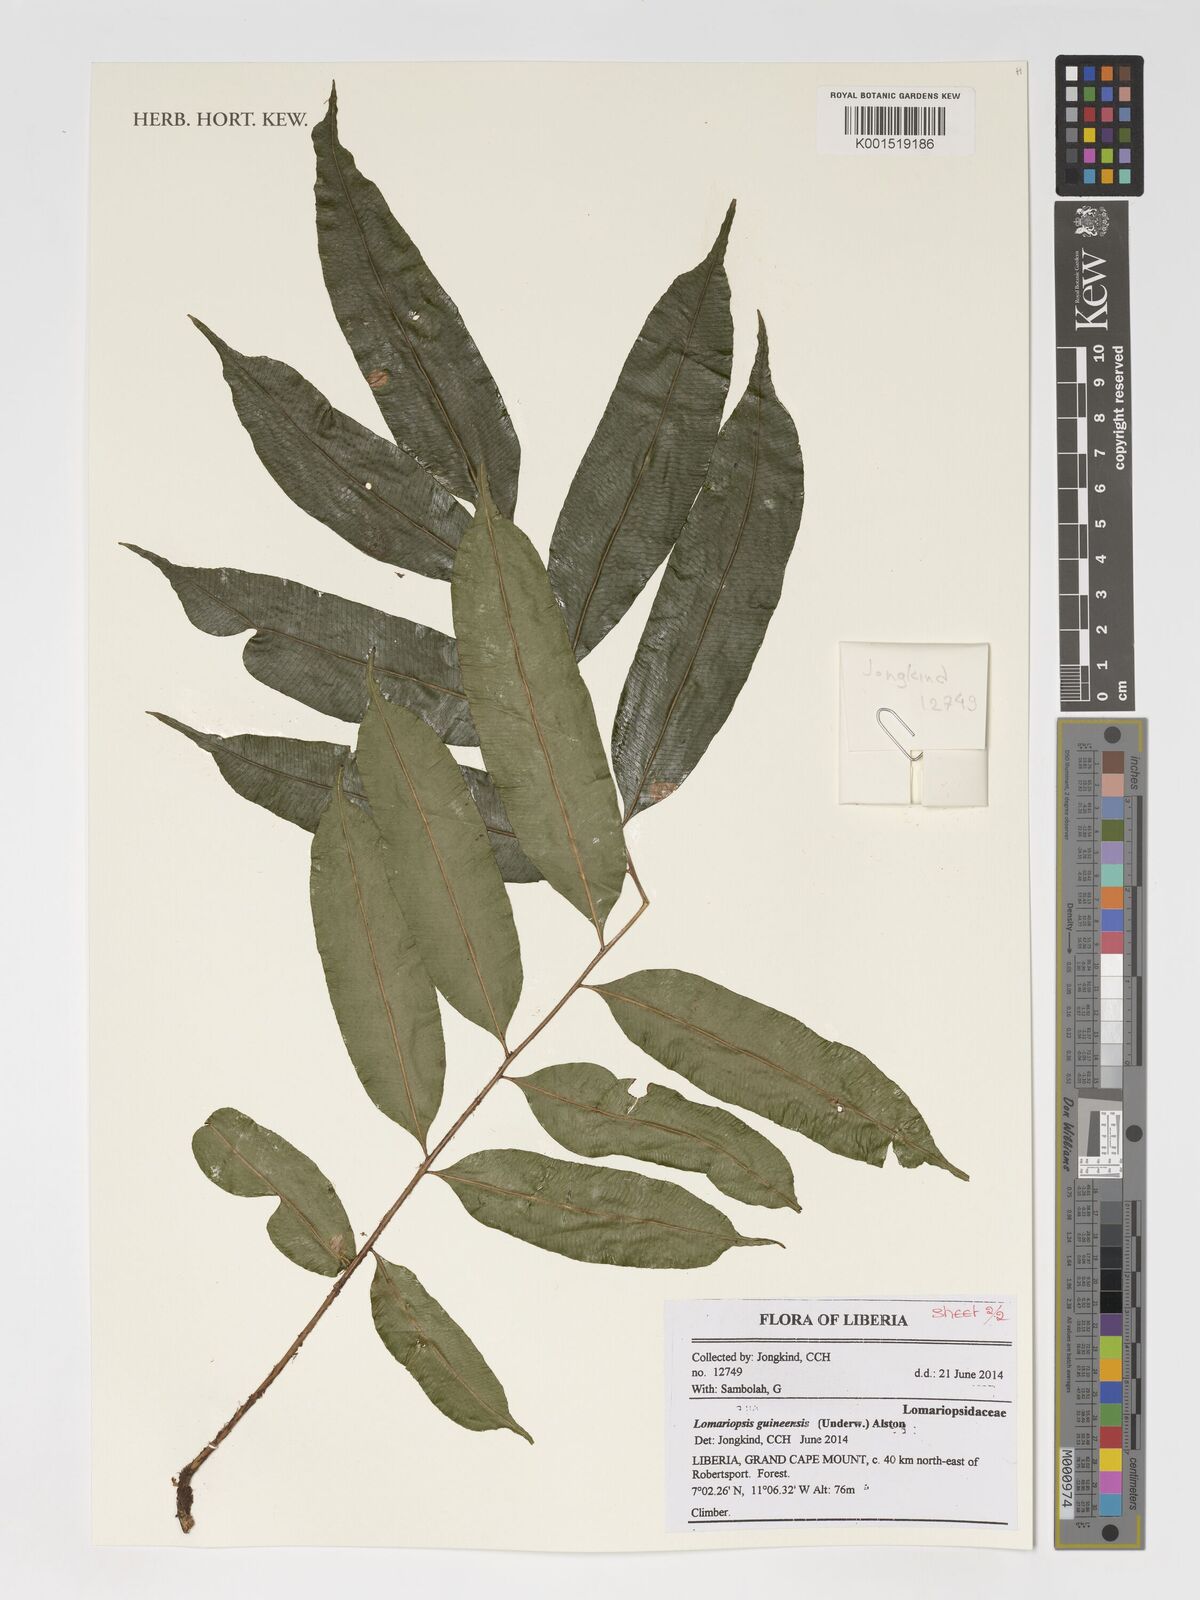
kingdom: Plantae
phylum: Tracheophyta
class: Polypodiopsida
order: Polypodiales
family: Lomariopsidaceae
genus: Lomariopsis
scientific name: Lomariopsis guineensis
